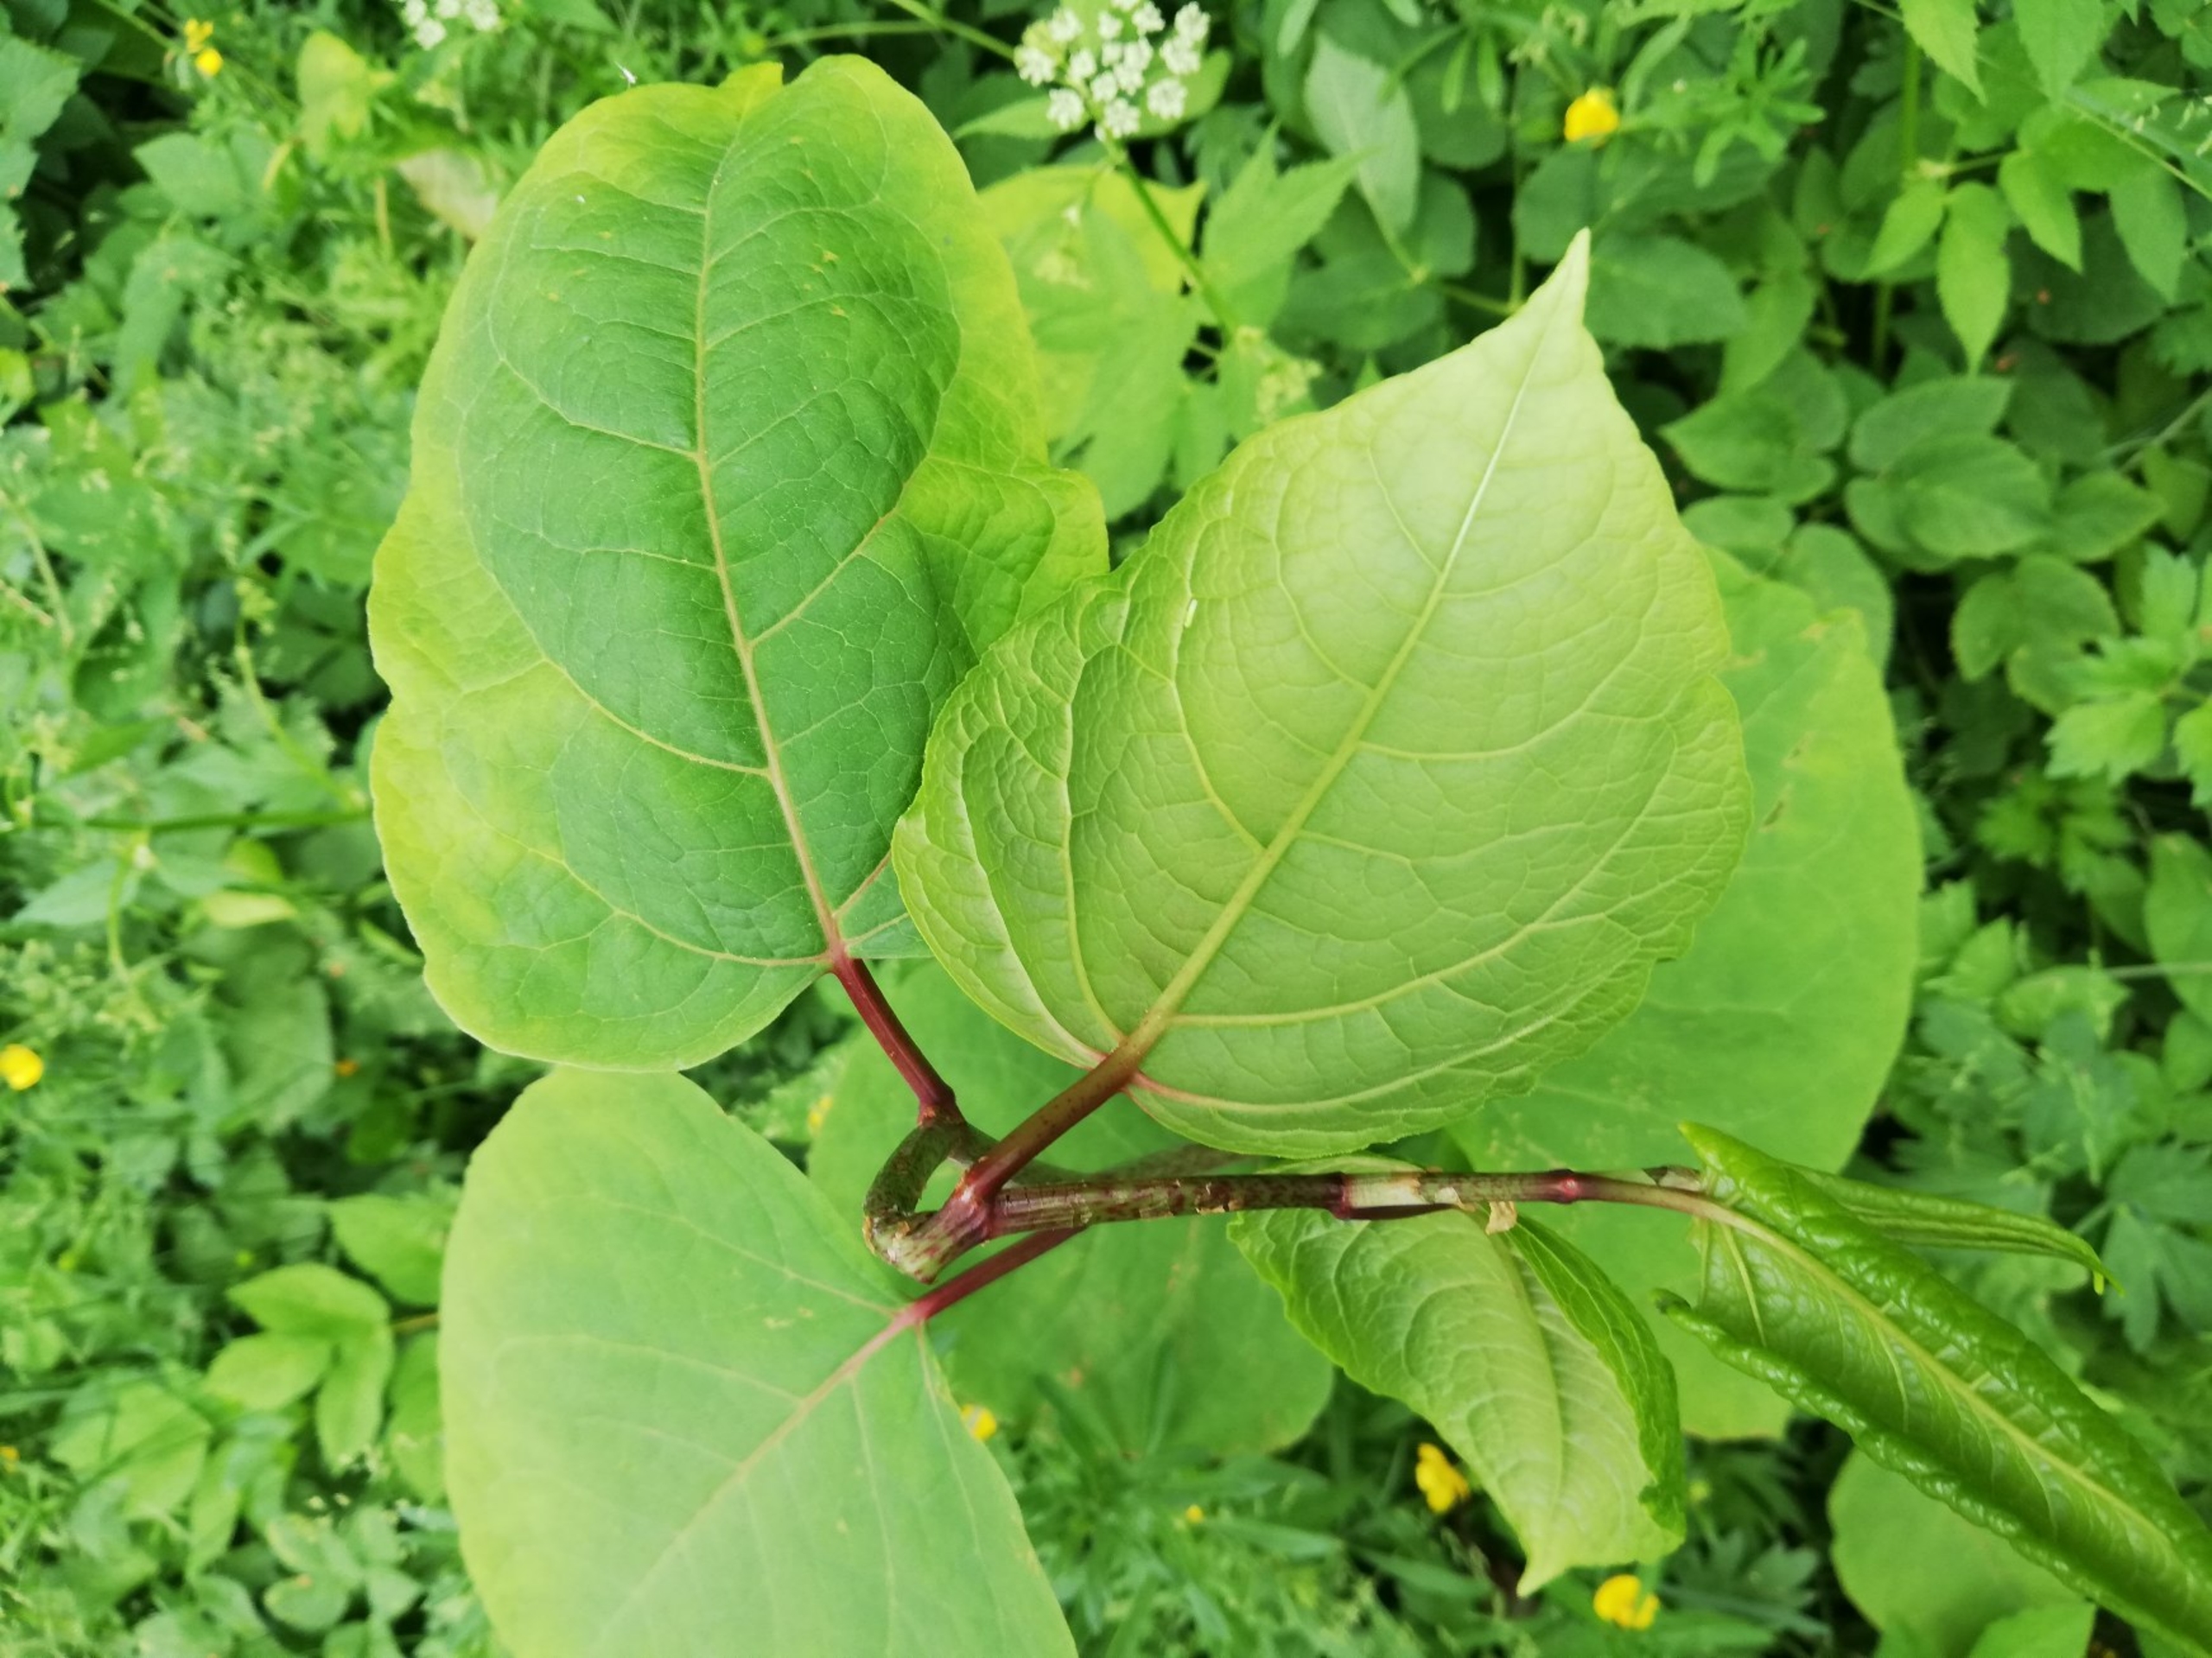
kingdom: Plantae
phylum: Tracheophyta
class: Magnoliopsida
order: Caryophyllales
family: Polygonaceae
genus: Reynoutria
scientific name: Reynoutria bohemica
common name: Hybrid-pileurt
